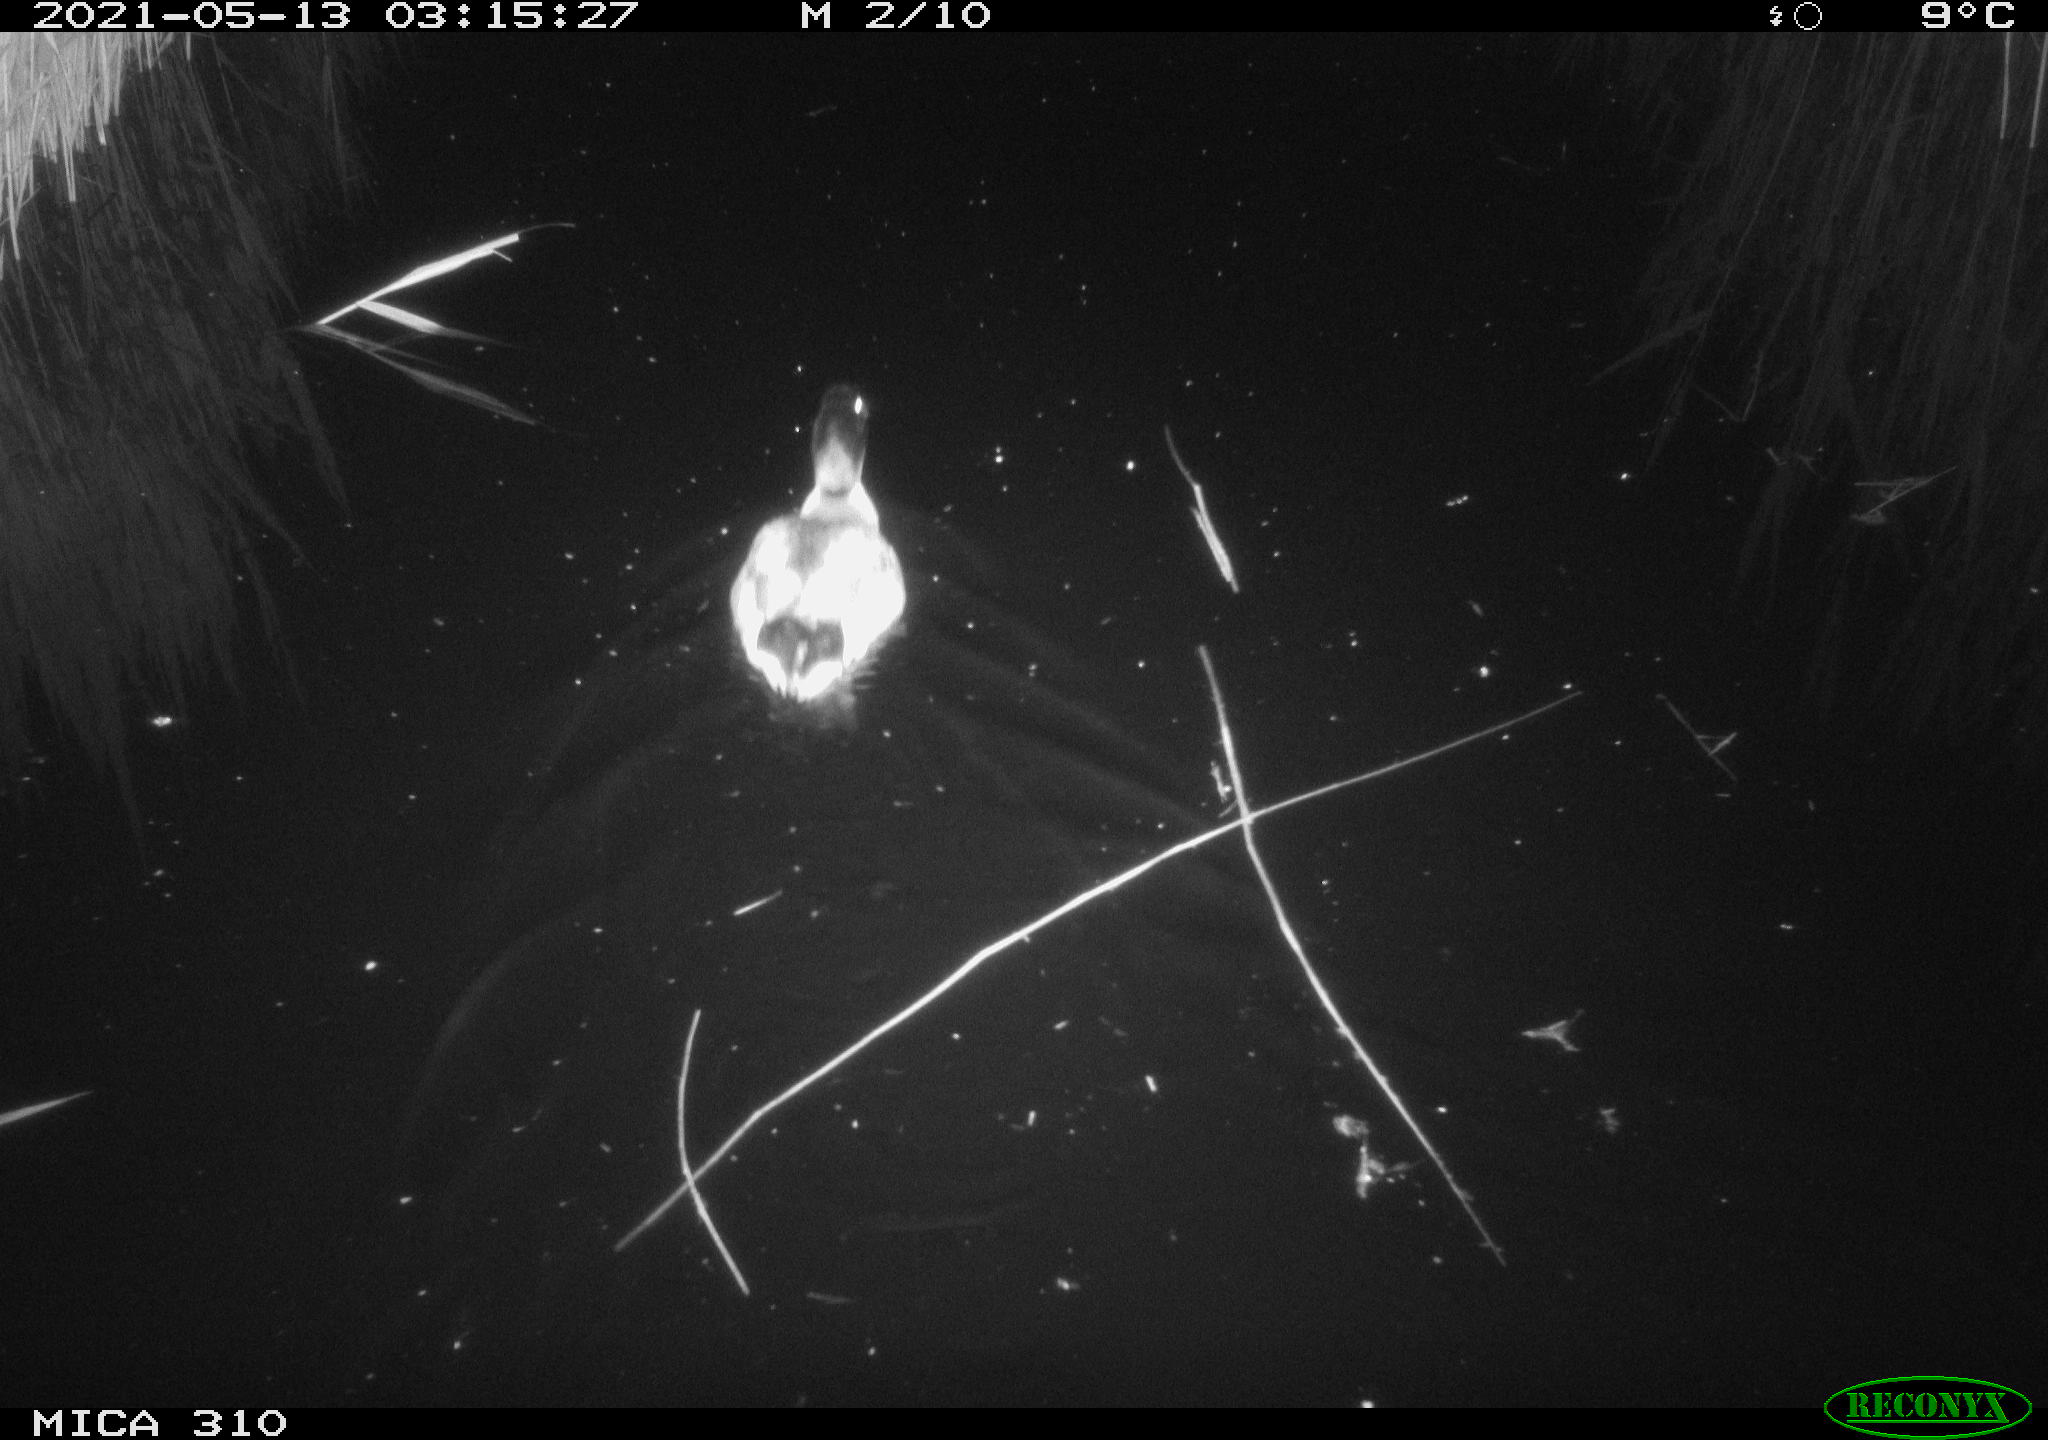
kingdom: Animalia
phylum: Chordata
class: Aves
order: Anseriformes
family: Anatidae
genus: Anas
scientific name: Anas platyrhynchos
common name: Mallard
